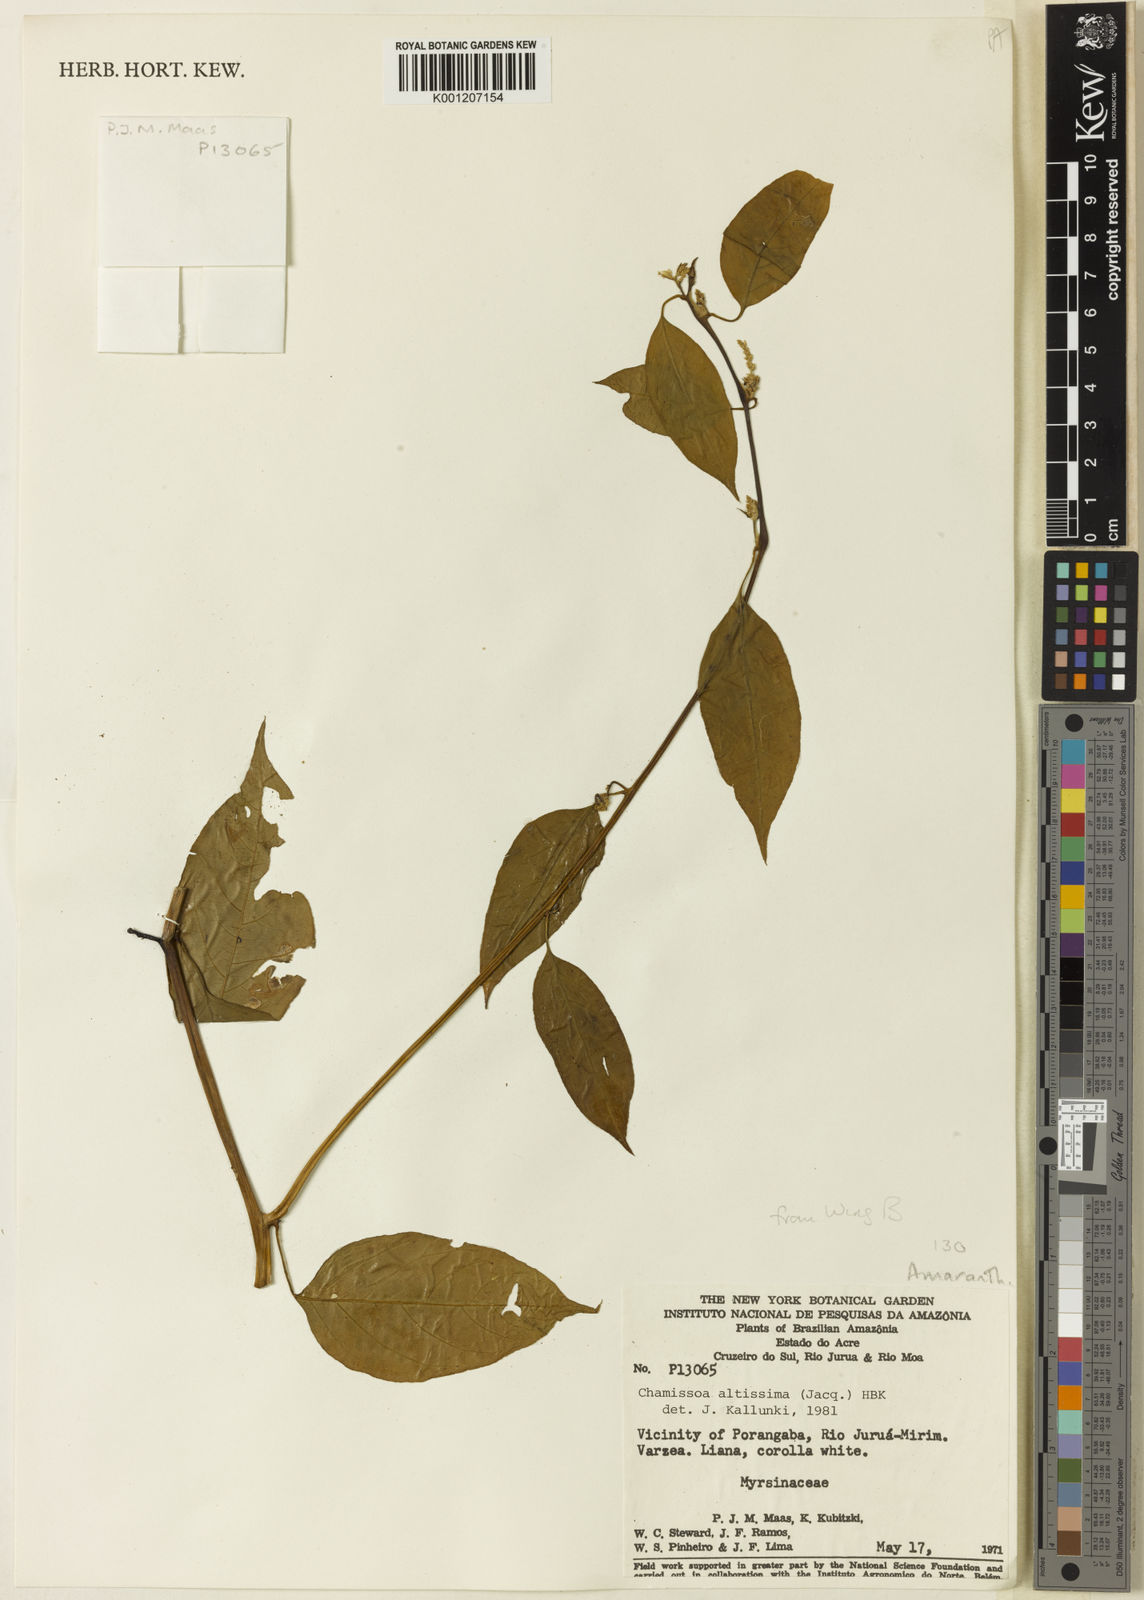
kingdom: Plantae
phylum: Tracheophyta
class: Magnoliopsida
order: Caryophyllales
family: Amaranthaceae
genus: Chamissoa
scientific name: Chamissoa altissima
